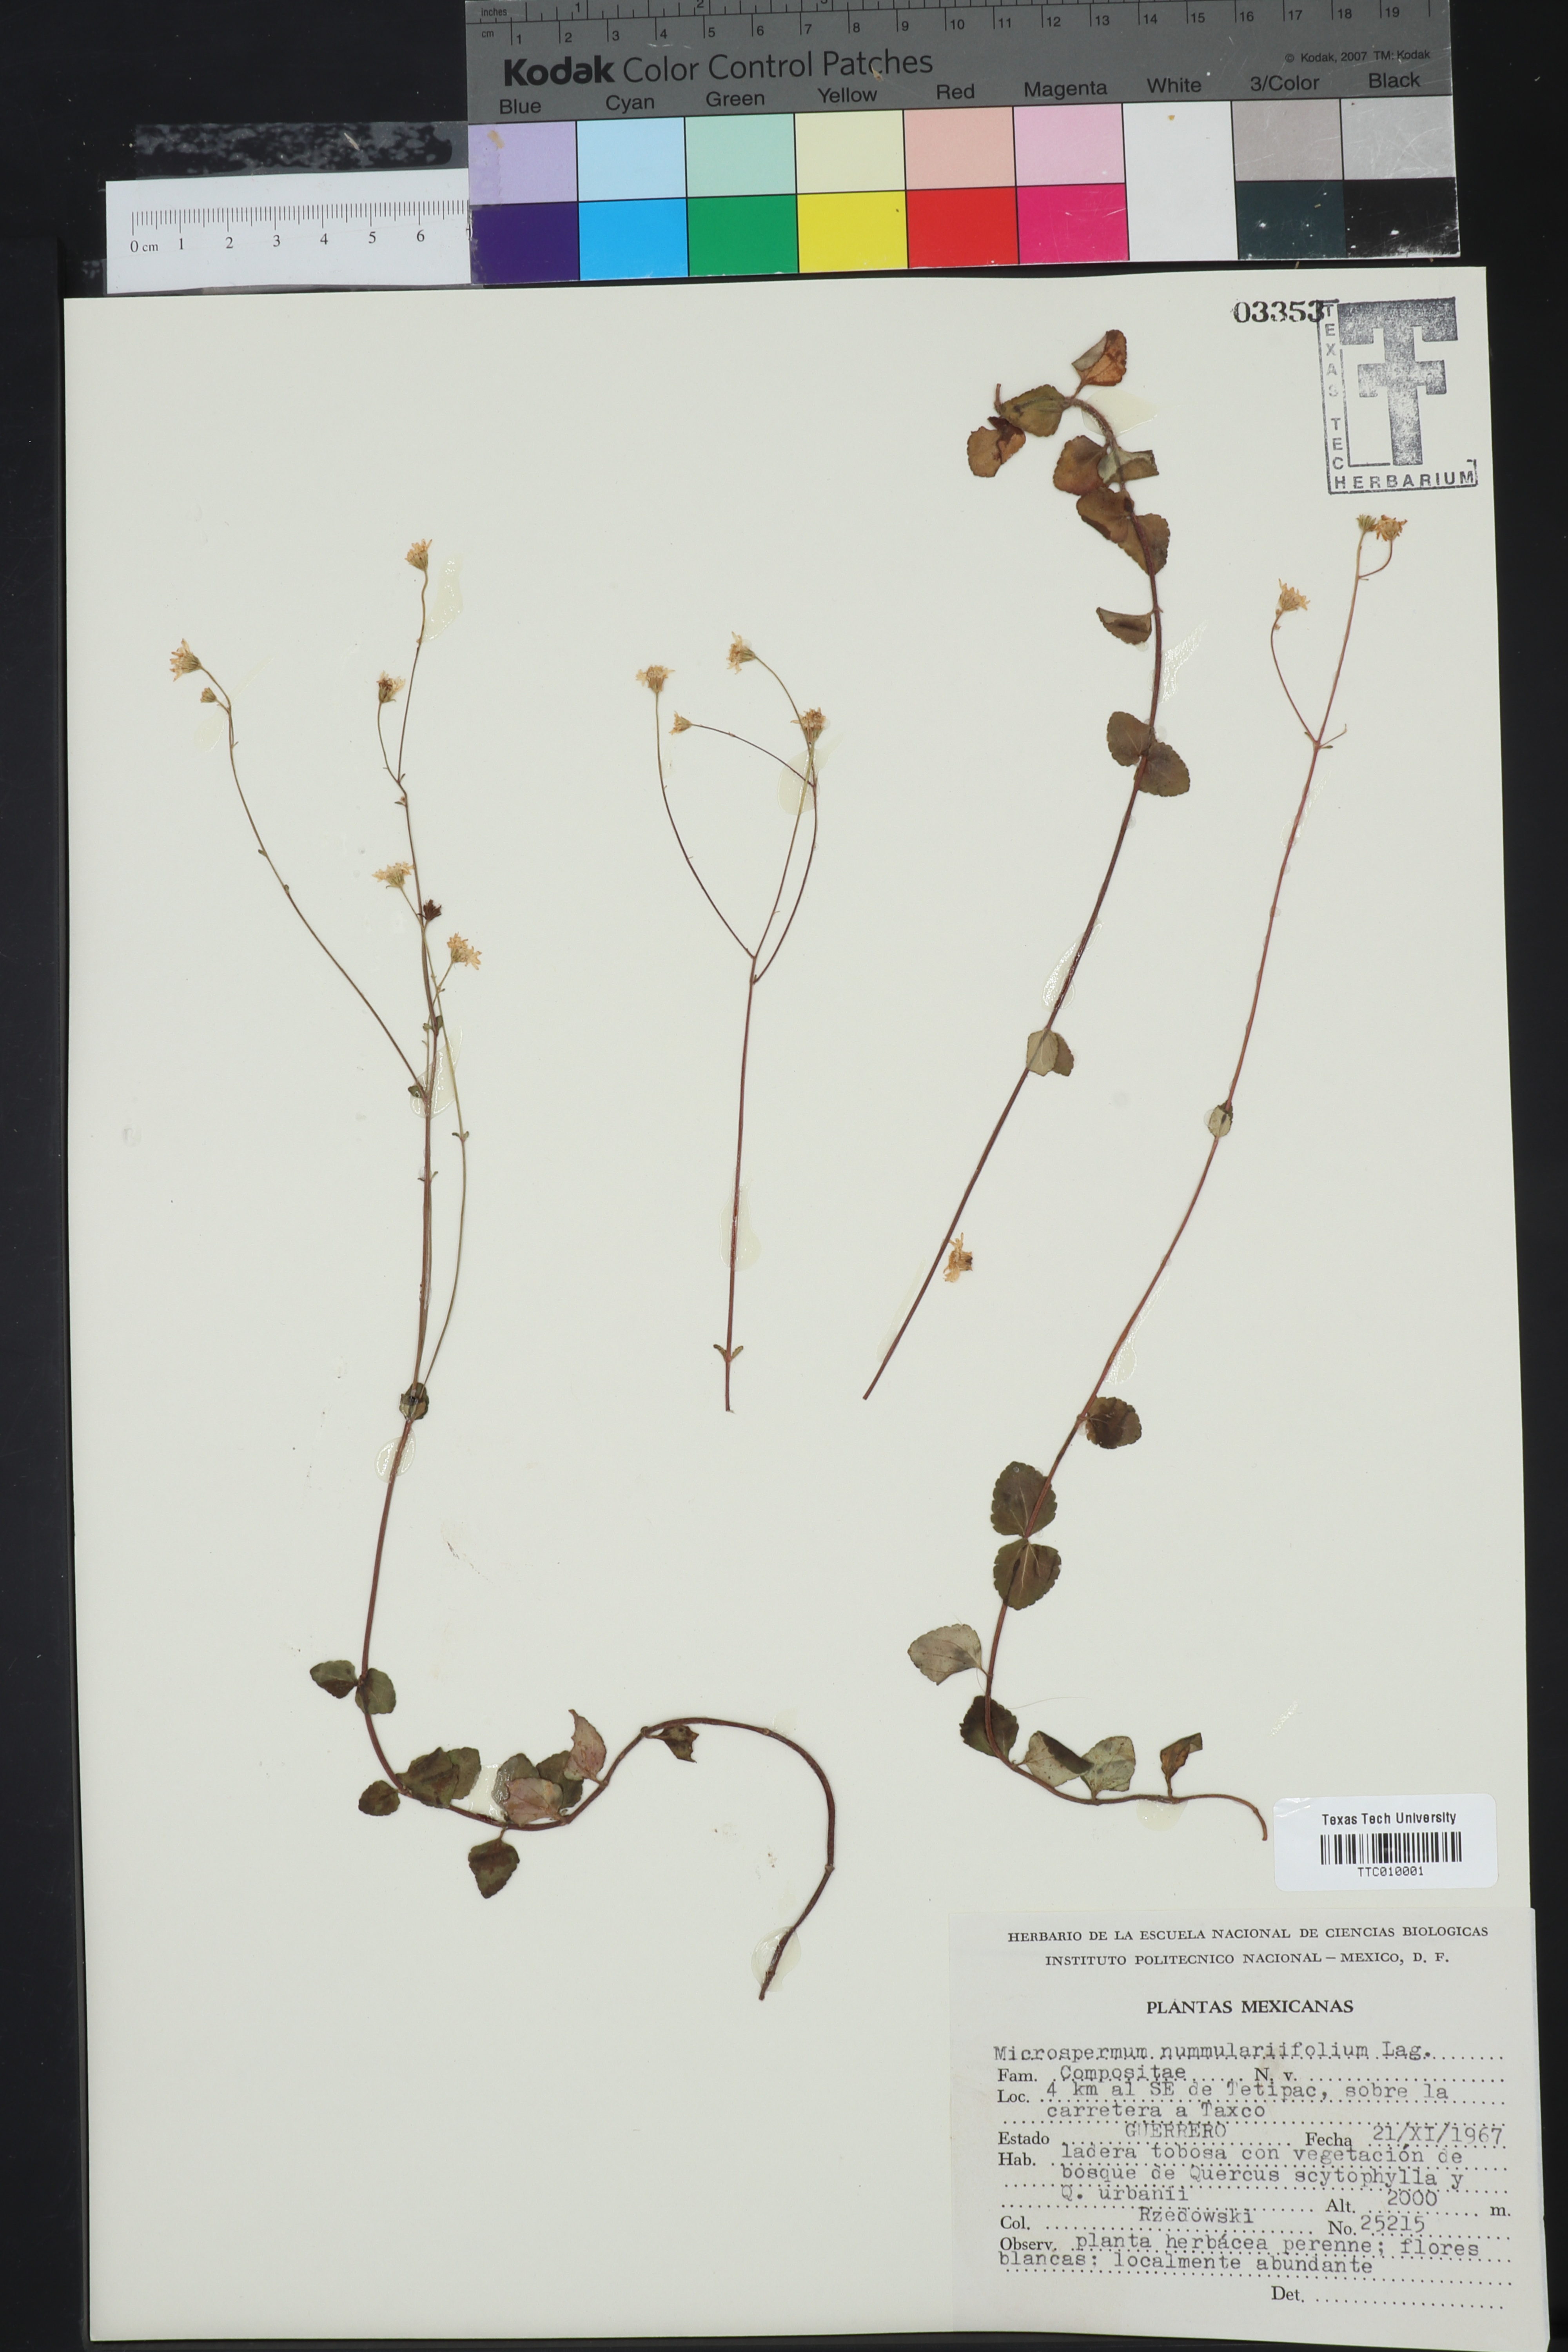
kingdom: Plantae
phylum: Tracheophyta
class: Magnoliopsida
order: Asterales
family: Asteraceae
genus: Microspermum
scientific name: Microspermum nummulariifolium
